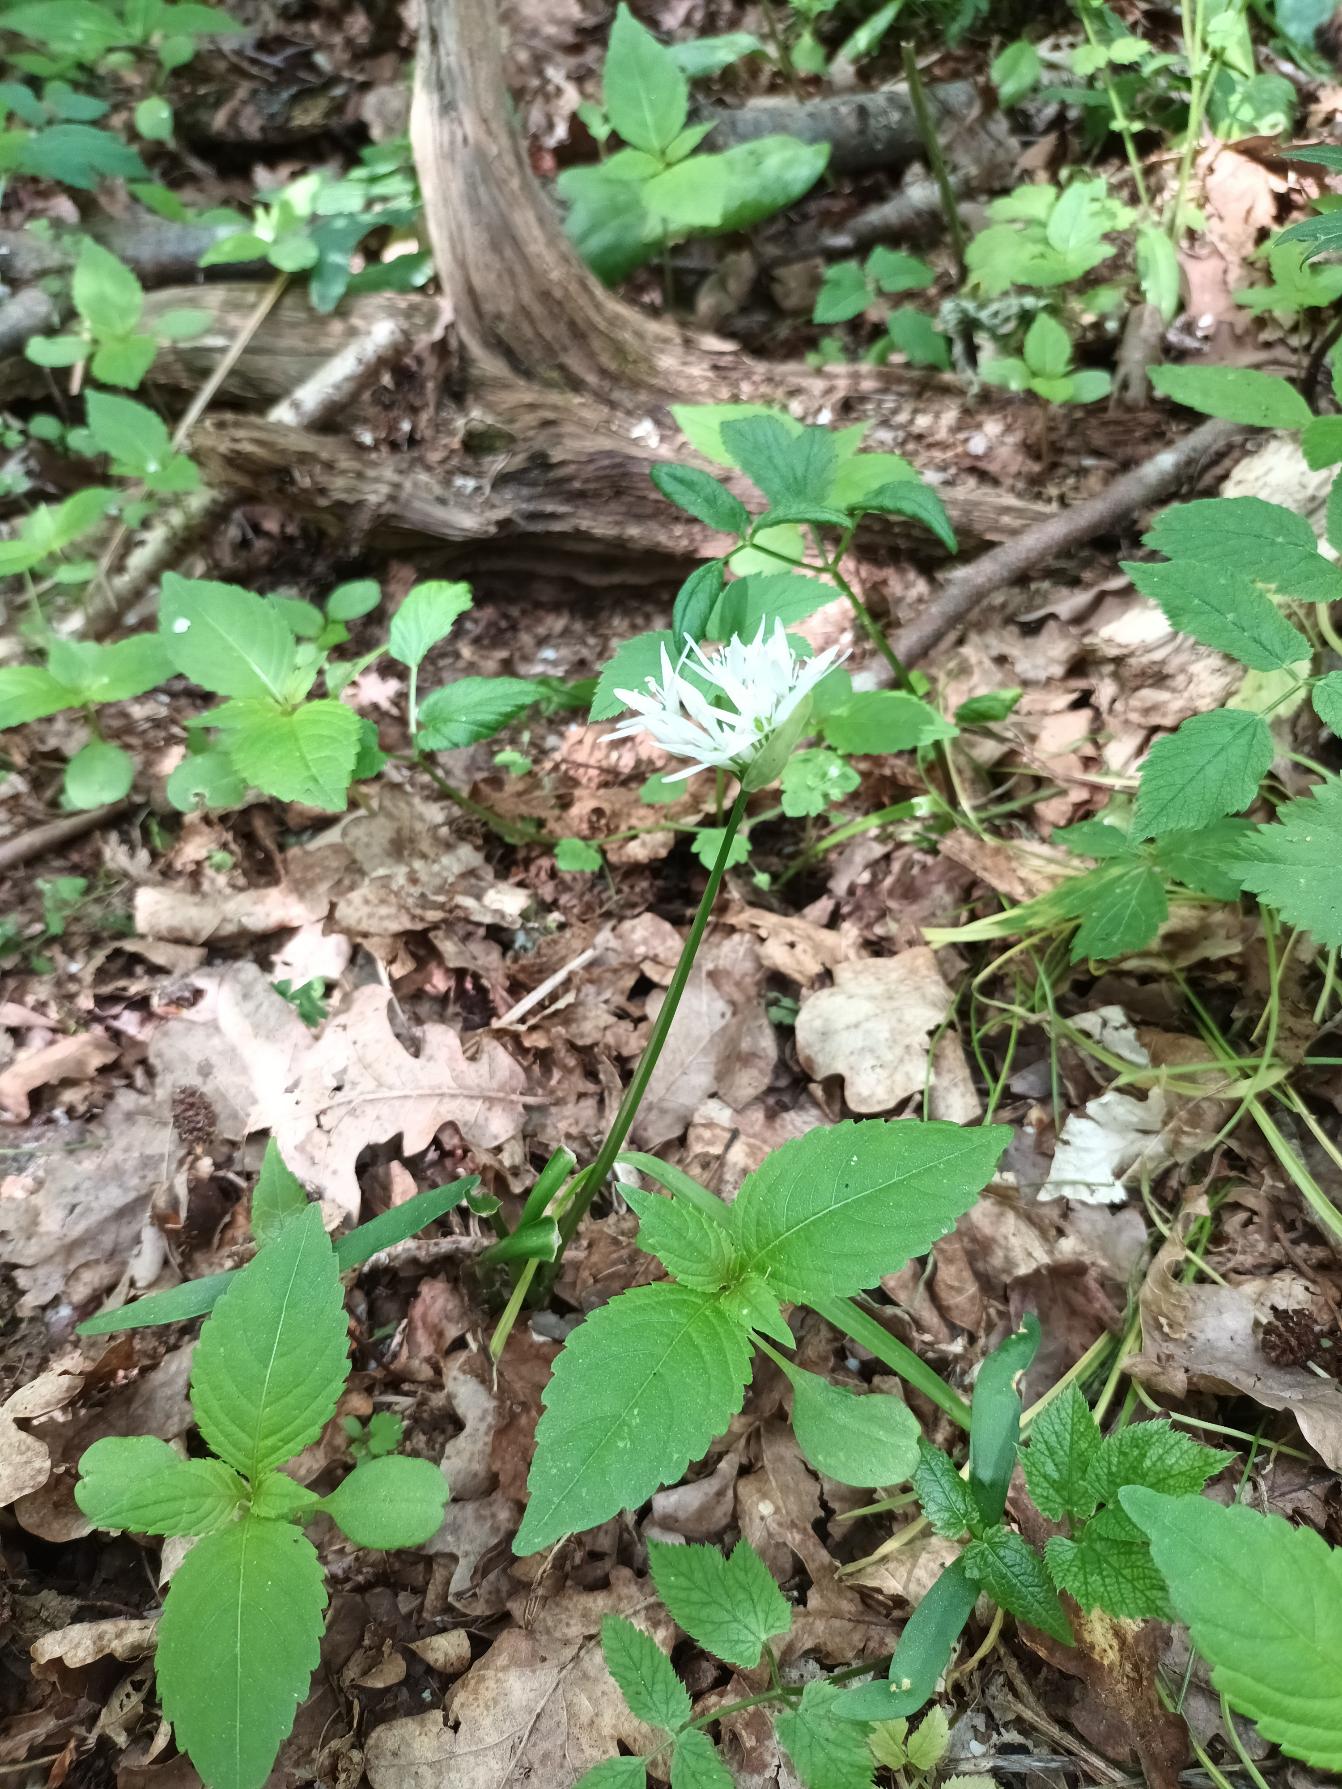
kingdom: Plantae
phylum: Tracheophyta
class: Liliopsida
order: Asparagales
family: Amaryllidaceae
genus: Allium
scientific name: Allium ursinum
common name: Rams-løg
